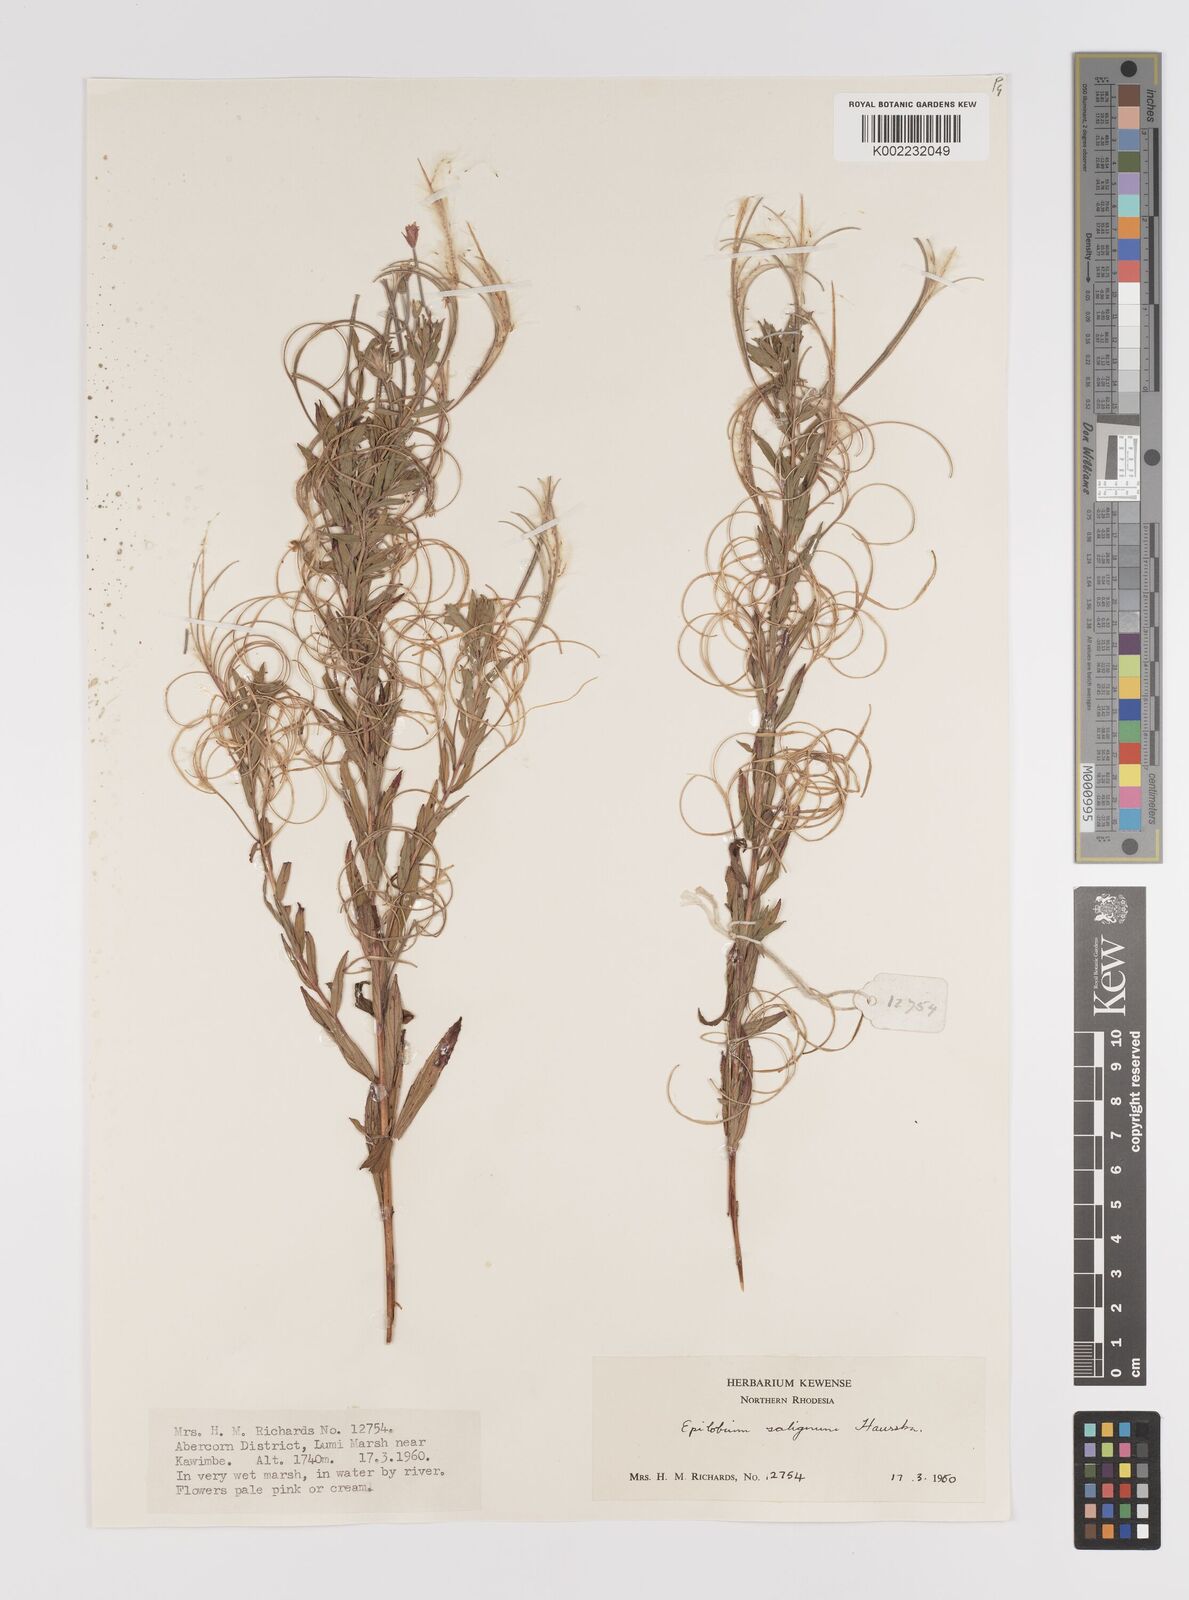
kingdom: Plantae
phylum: Tracheophyta
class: Magnoliopsida
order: Myrtales
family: Onagraceae
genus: Epilobium
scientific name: Epilobium salignum
